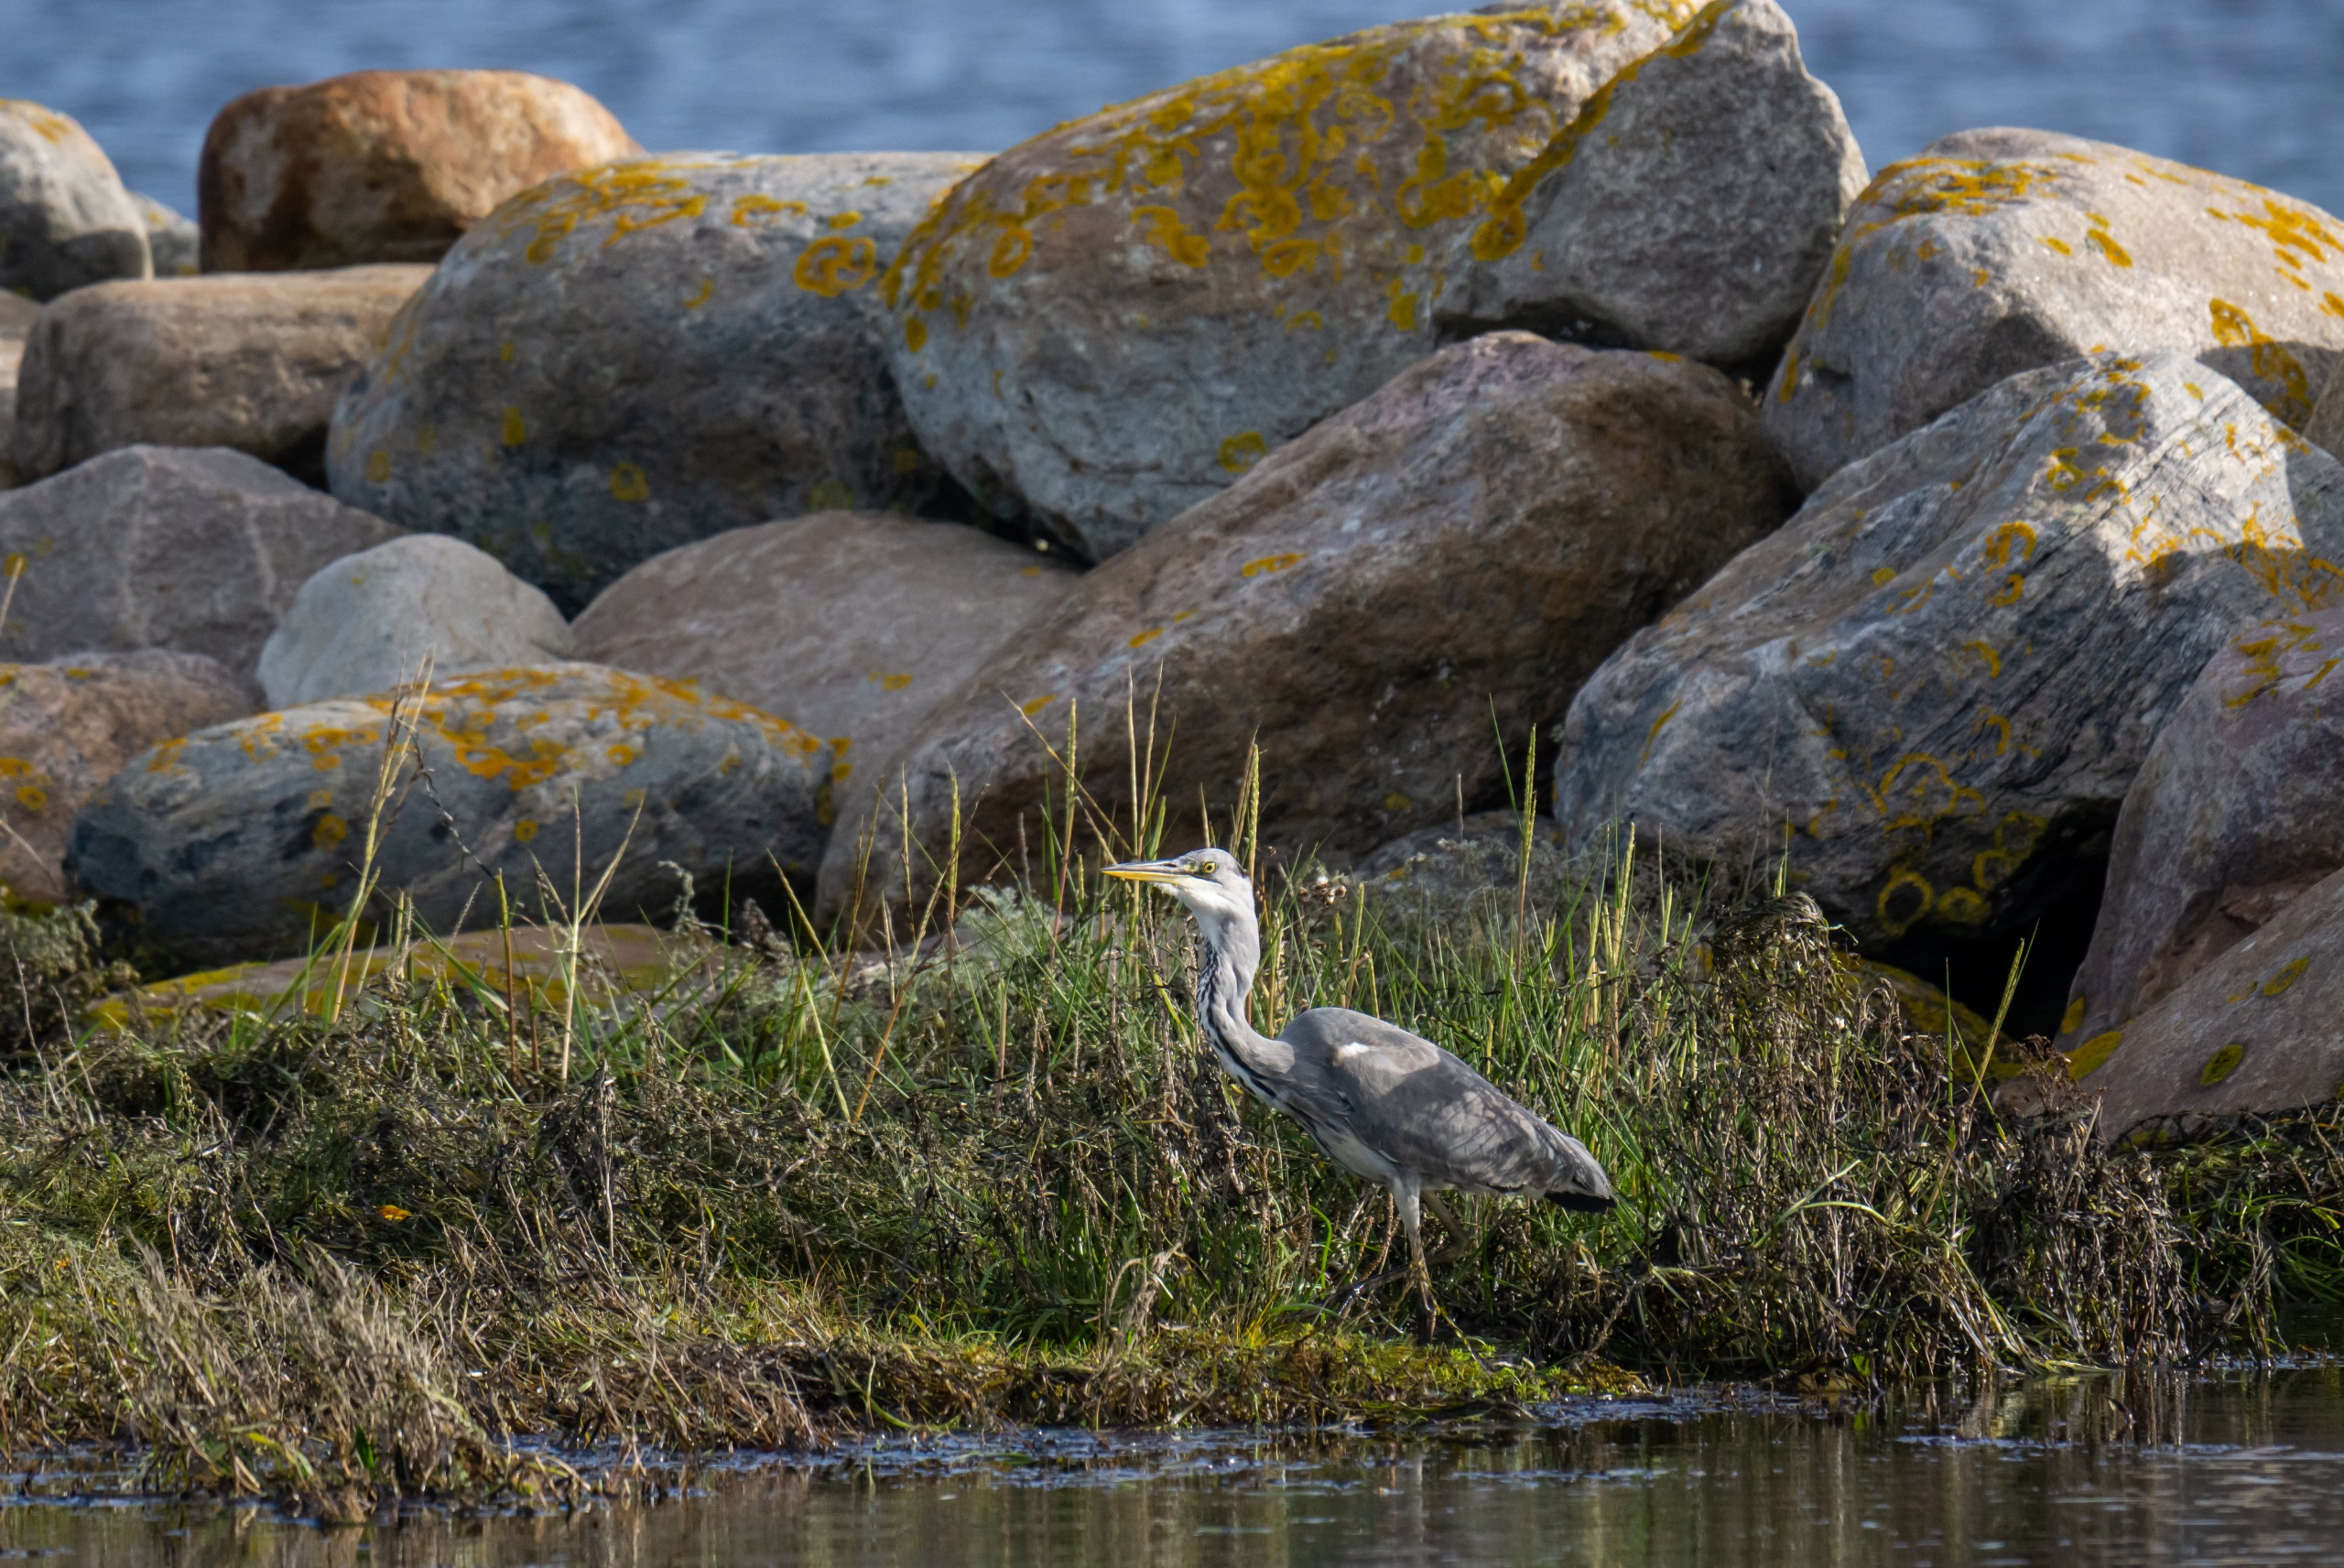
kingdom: Animalia
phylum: Chordata
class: Aves
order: Pelecaniformes
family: Ardeidae
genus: Ardea
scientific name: Ardea cinerea
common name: Fiskehejre
